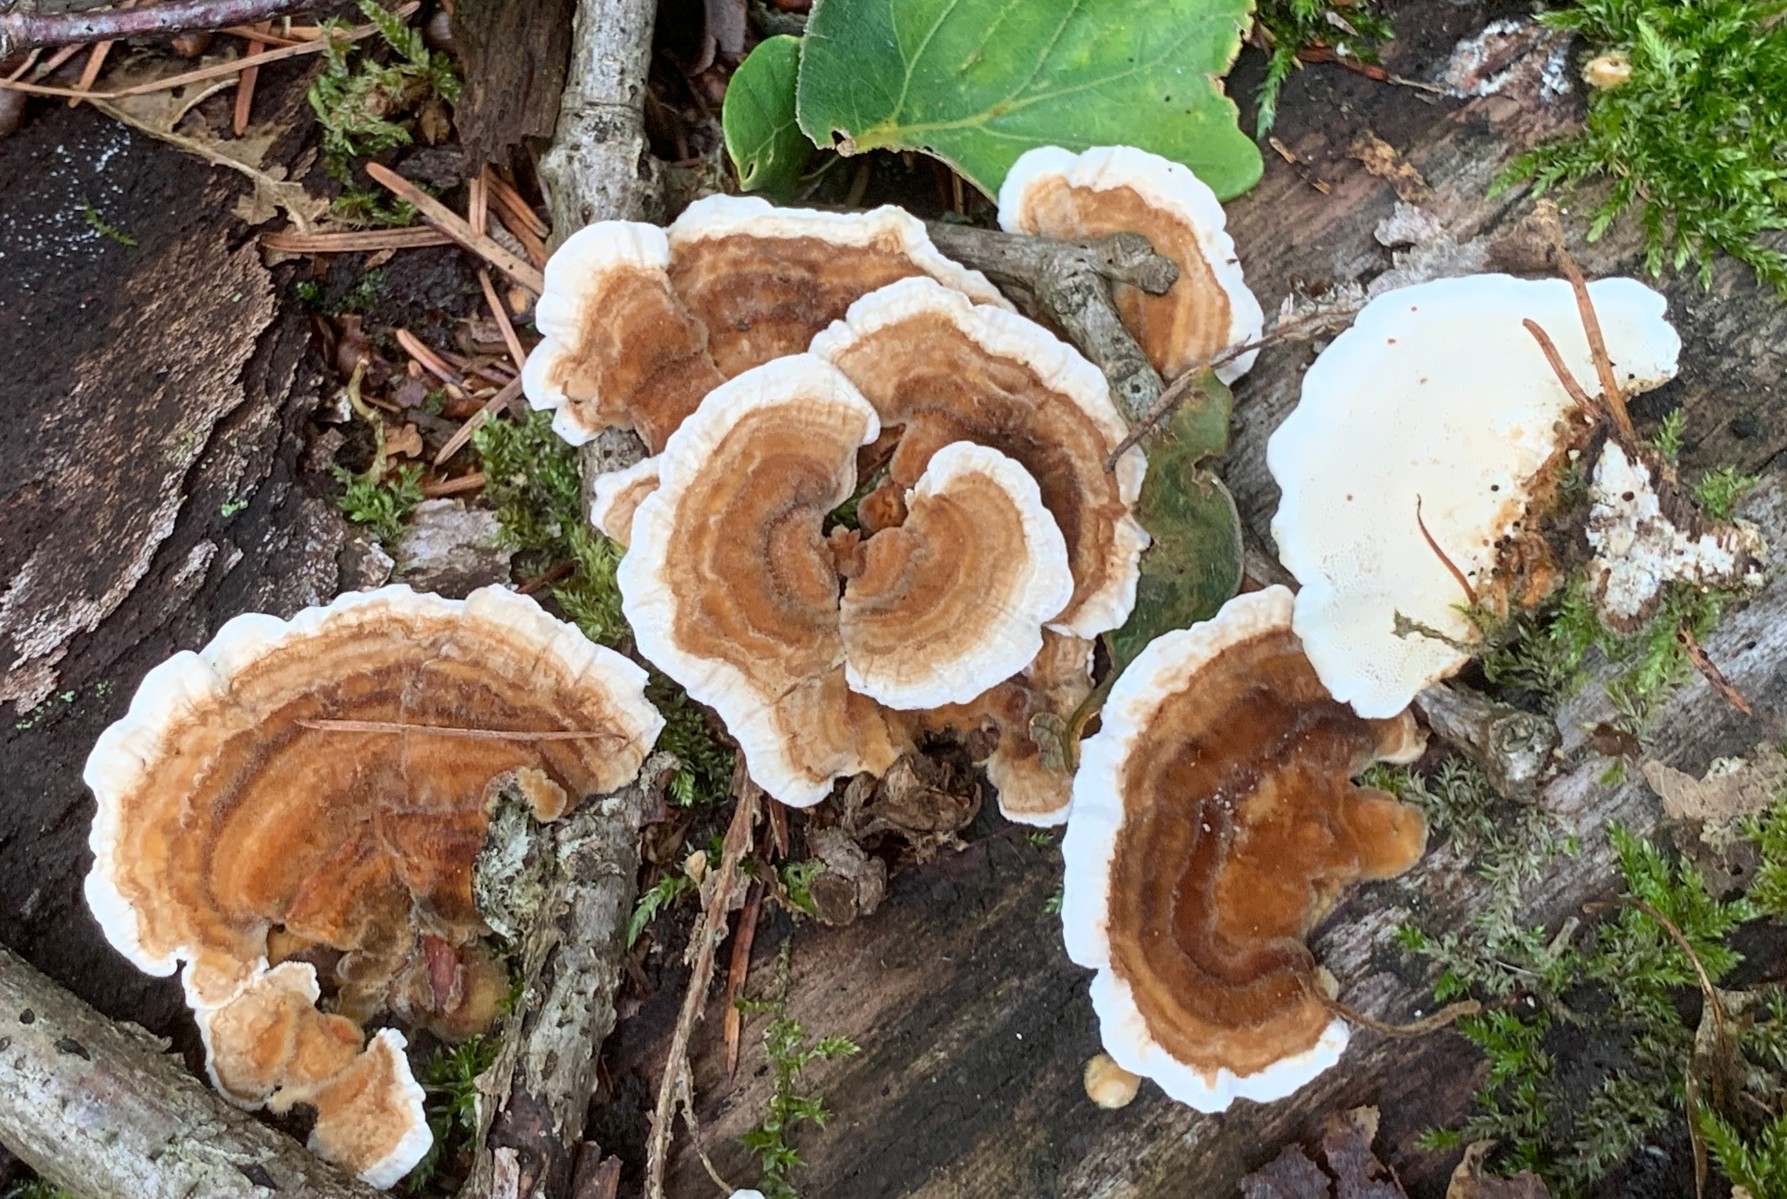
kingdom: Fungi
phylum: Basidiomycota
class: Agaricomycetes
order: Polyporales
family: Polyporaceae
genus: Trametes
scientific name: Trametes versicolor
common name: broget læderporesvamp
